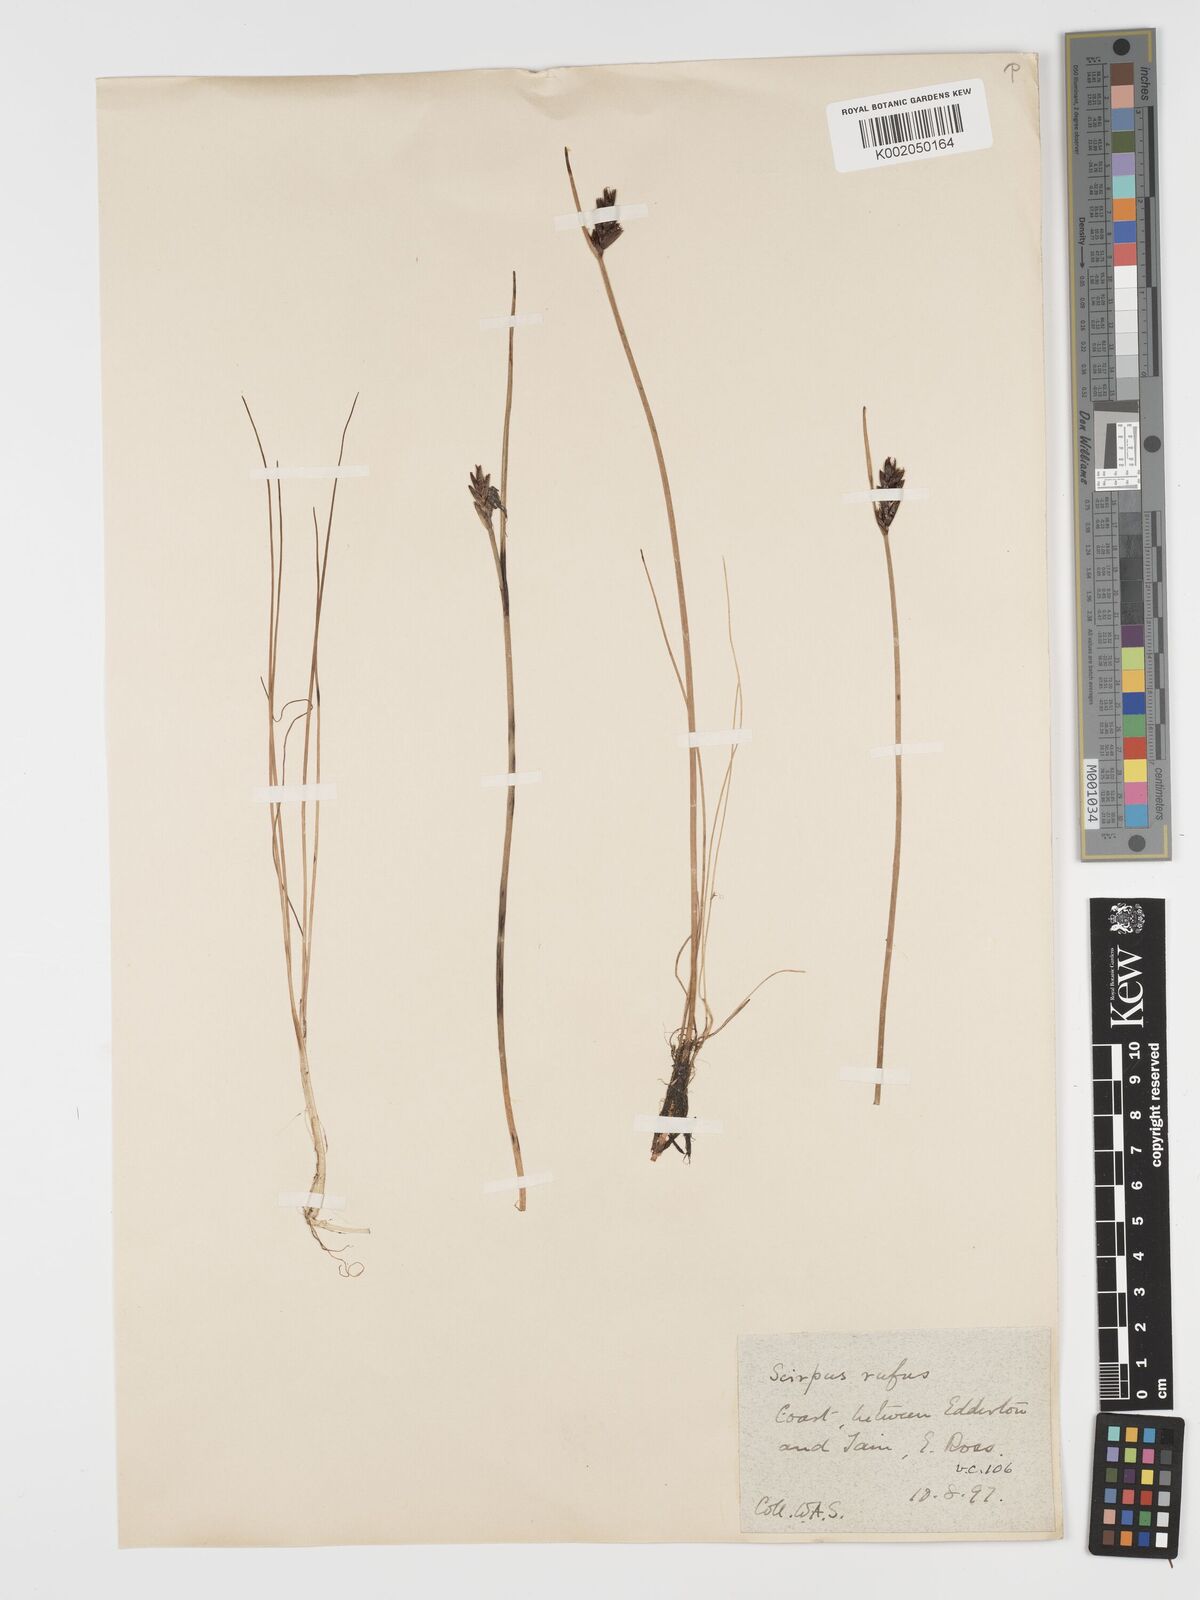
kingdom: Plantae
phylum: Tracheophyta
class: Liliopsida
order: Poales
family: Cyperaceae
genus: Blysmus
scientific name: Blysmus rufus
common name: Saltmarsh flat-sedge
